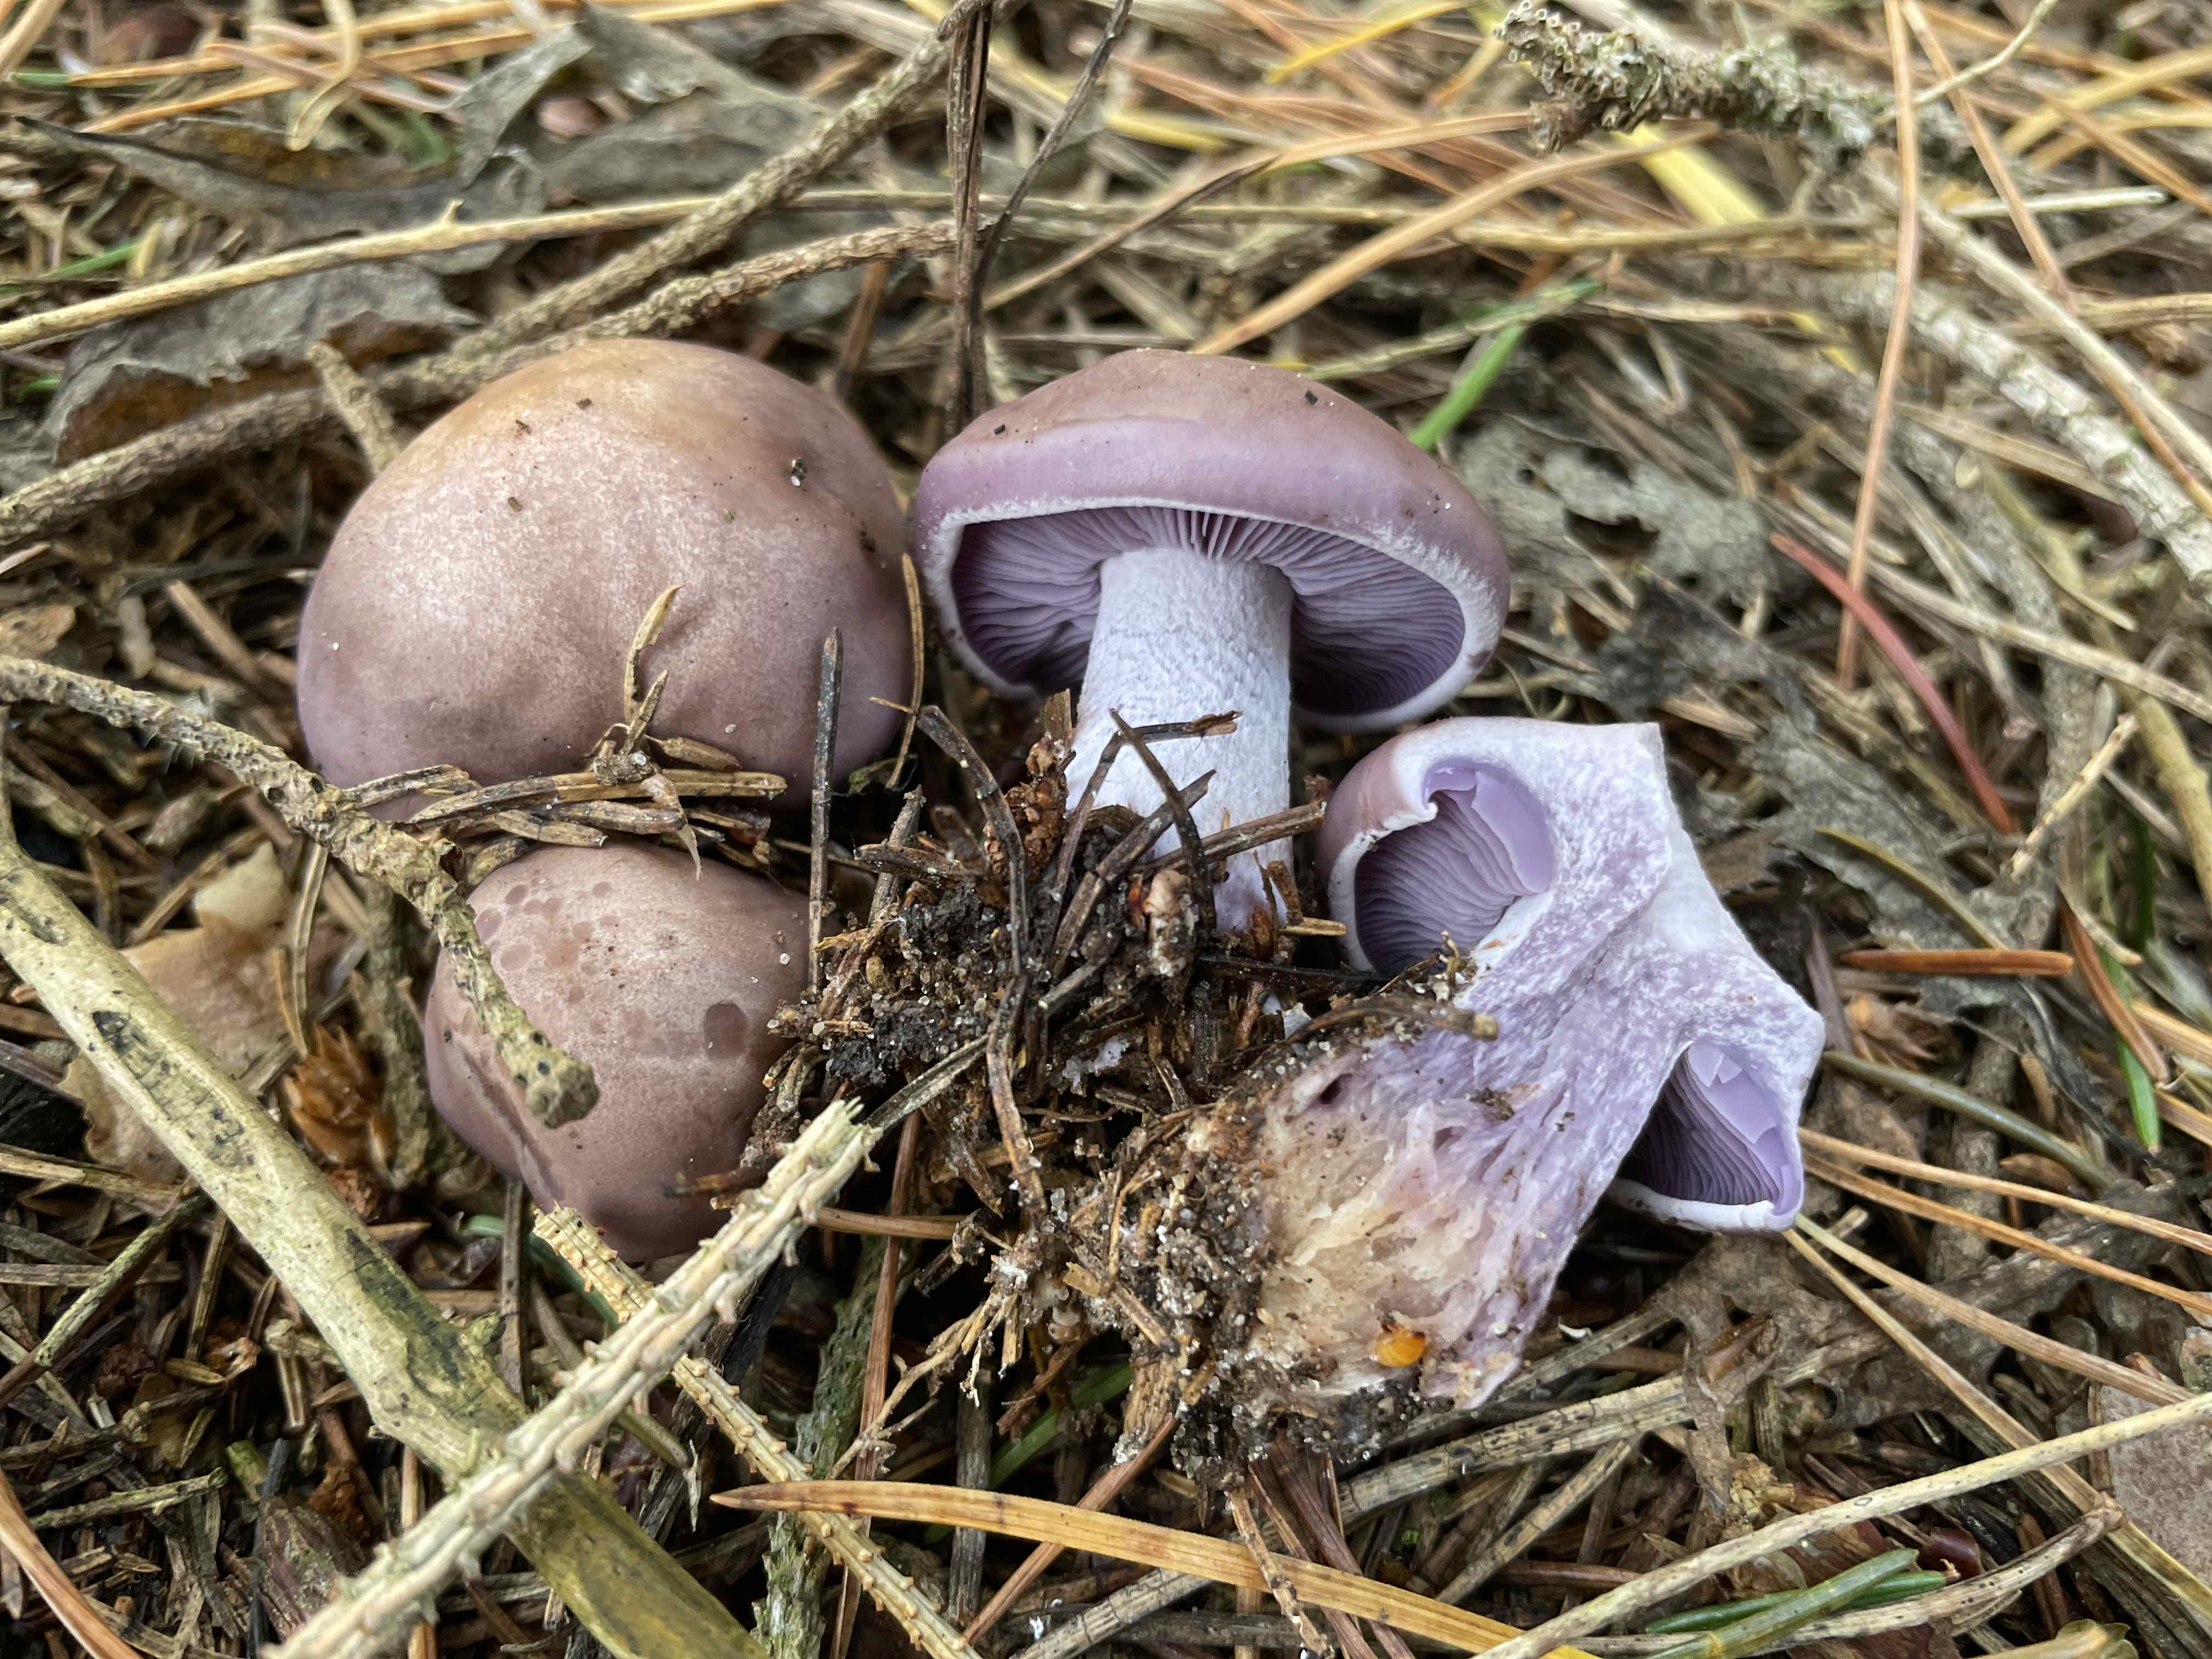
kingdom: Fungi
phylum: Basidiomycota
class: Agaricomycetes
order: Agaricales
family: Tricholomataceae
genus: Lepista
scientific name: Lepista nuda
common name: violet hekseringshat
